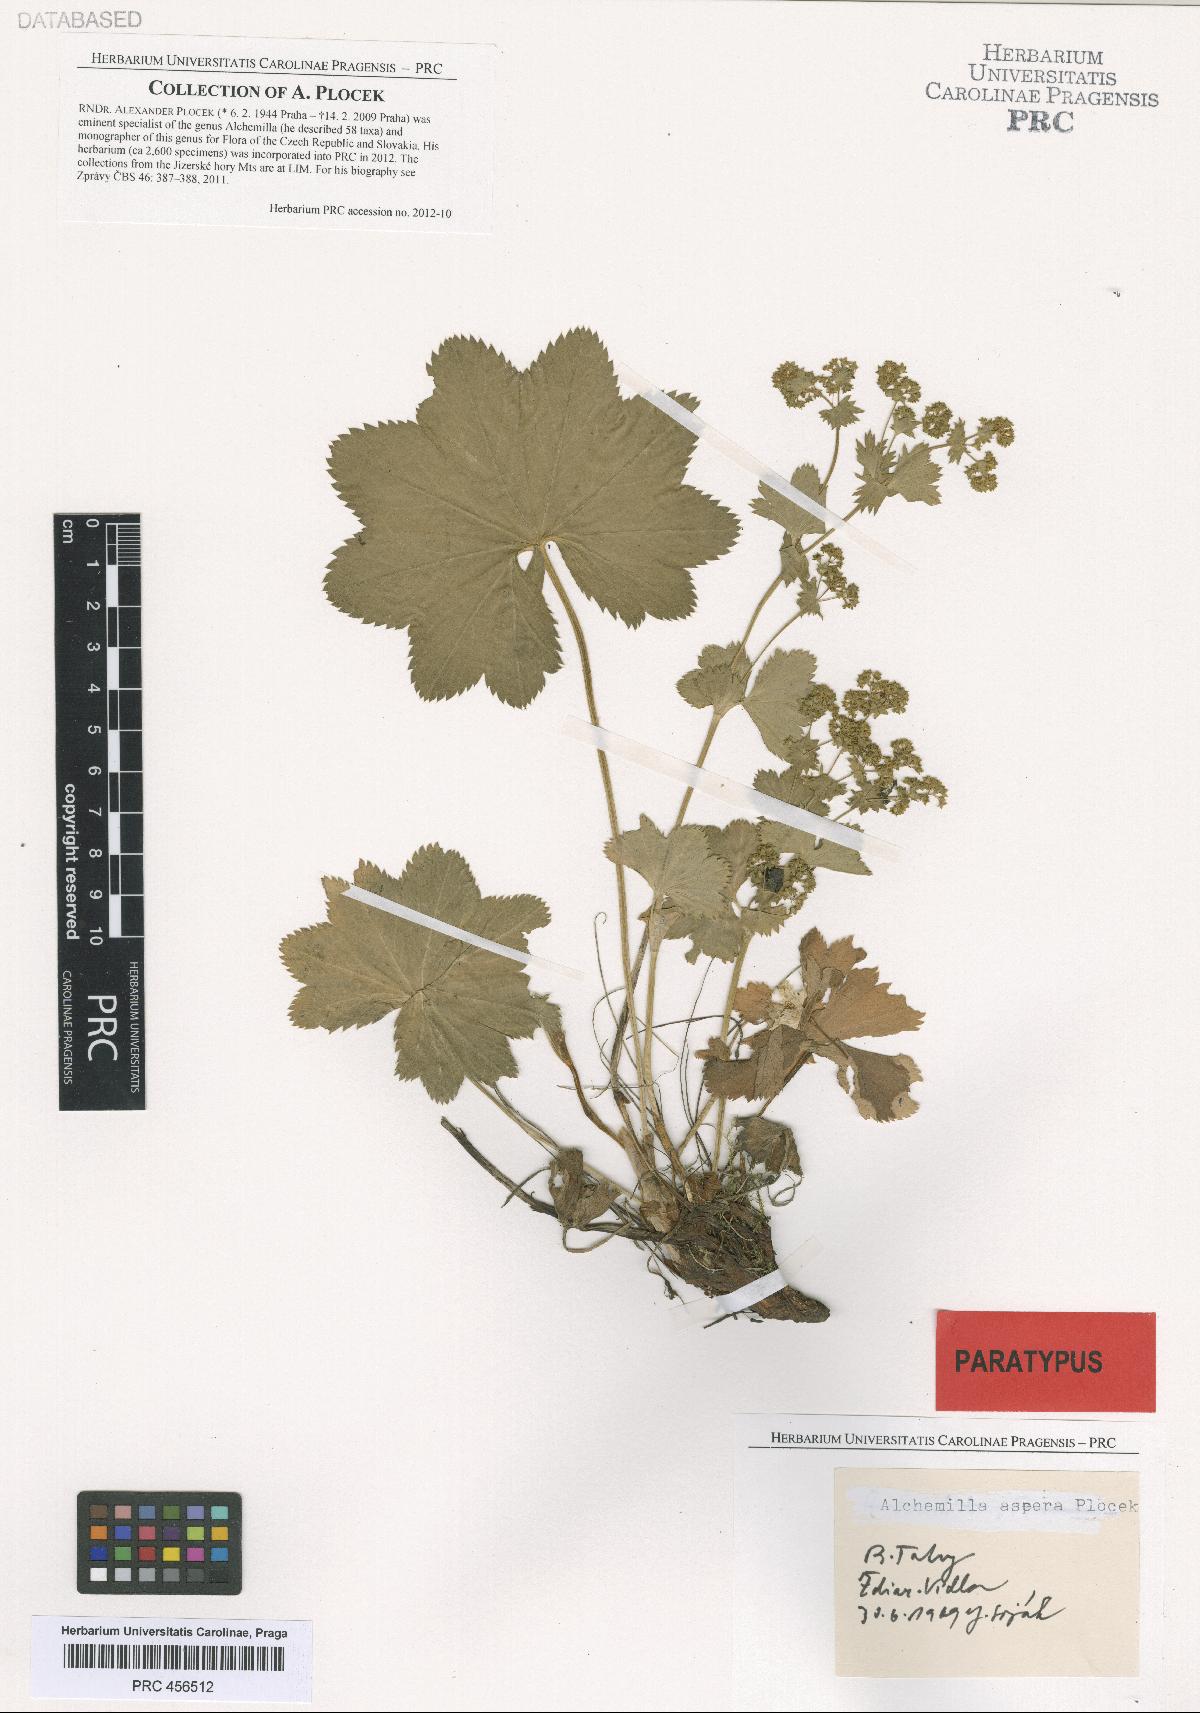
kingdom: Plantae
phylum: Tracheophyta
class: Magnoliopsida
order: Rosales
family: Rosaceae
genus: Alchemilla
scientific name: Alchemilla aspera
